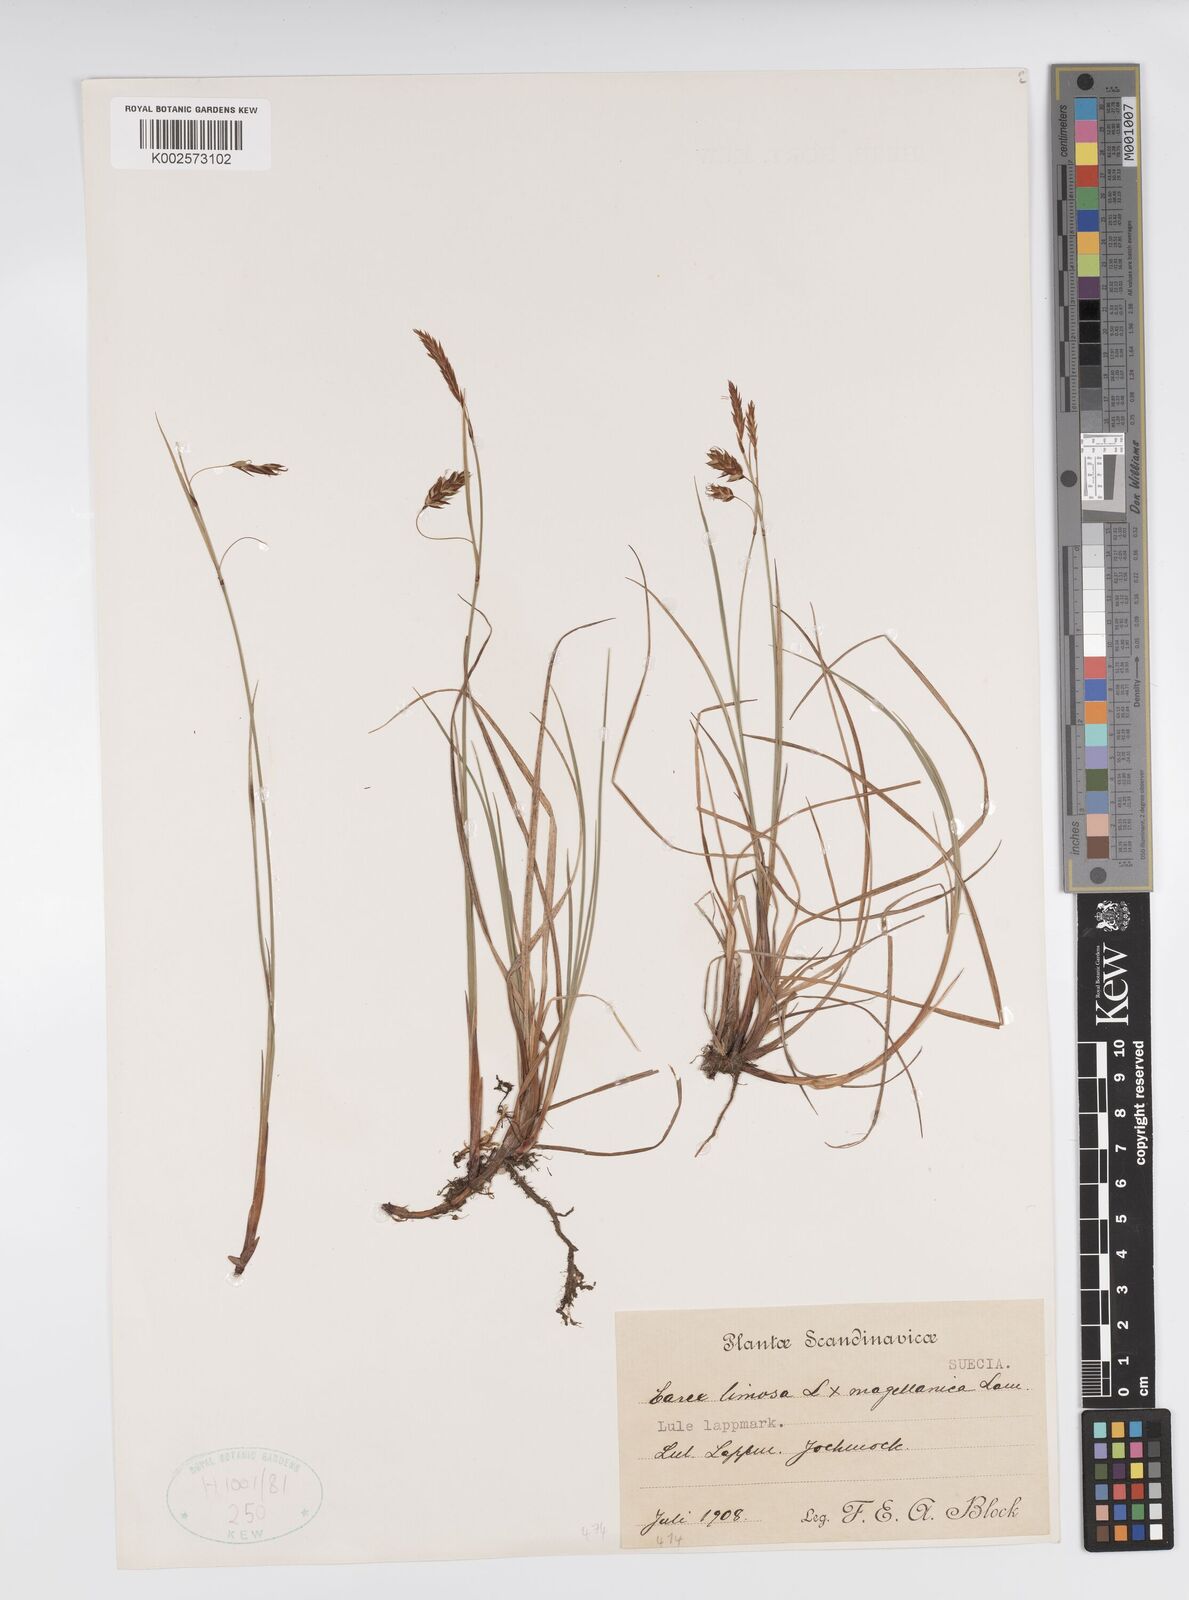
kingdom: Plantae
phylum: Tracheophyta
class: Liliopsida
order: Poales
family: Cyperaceae
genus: Carex
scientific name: Carex limosa
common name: Bog sedge
